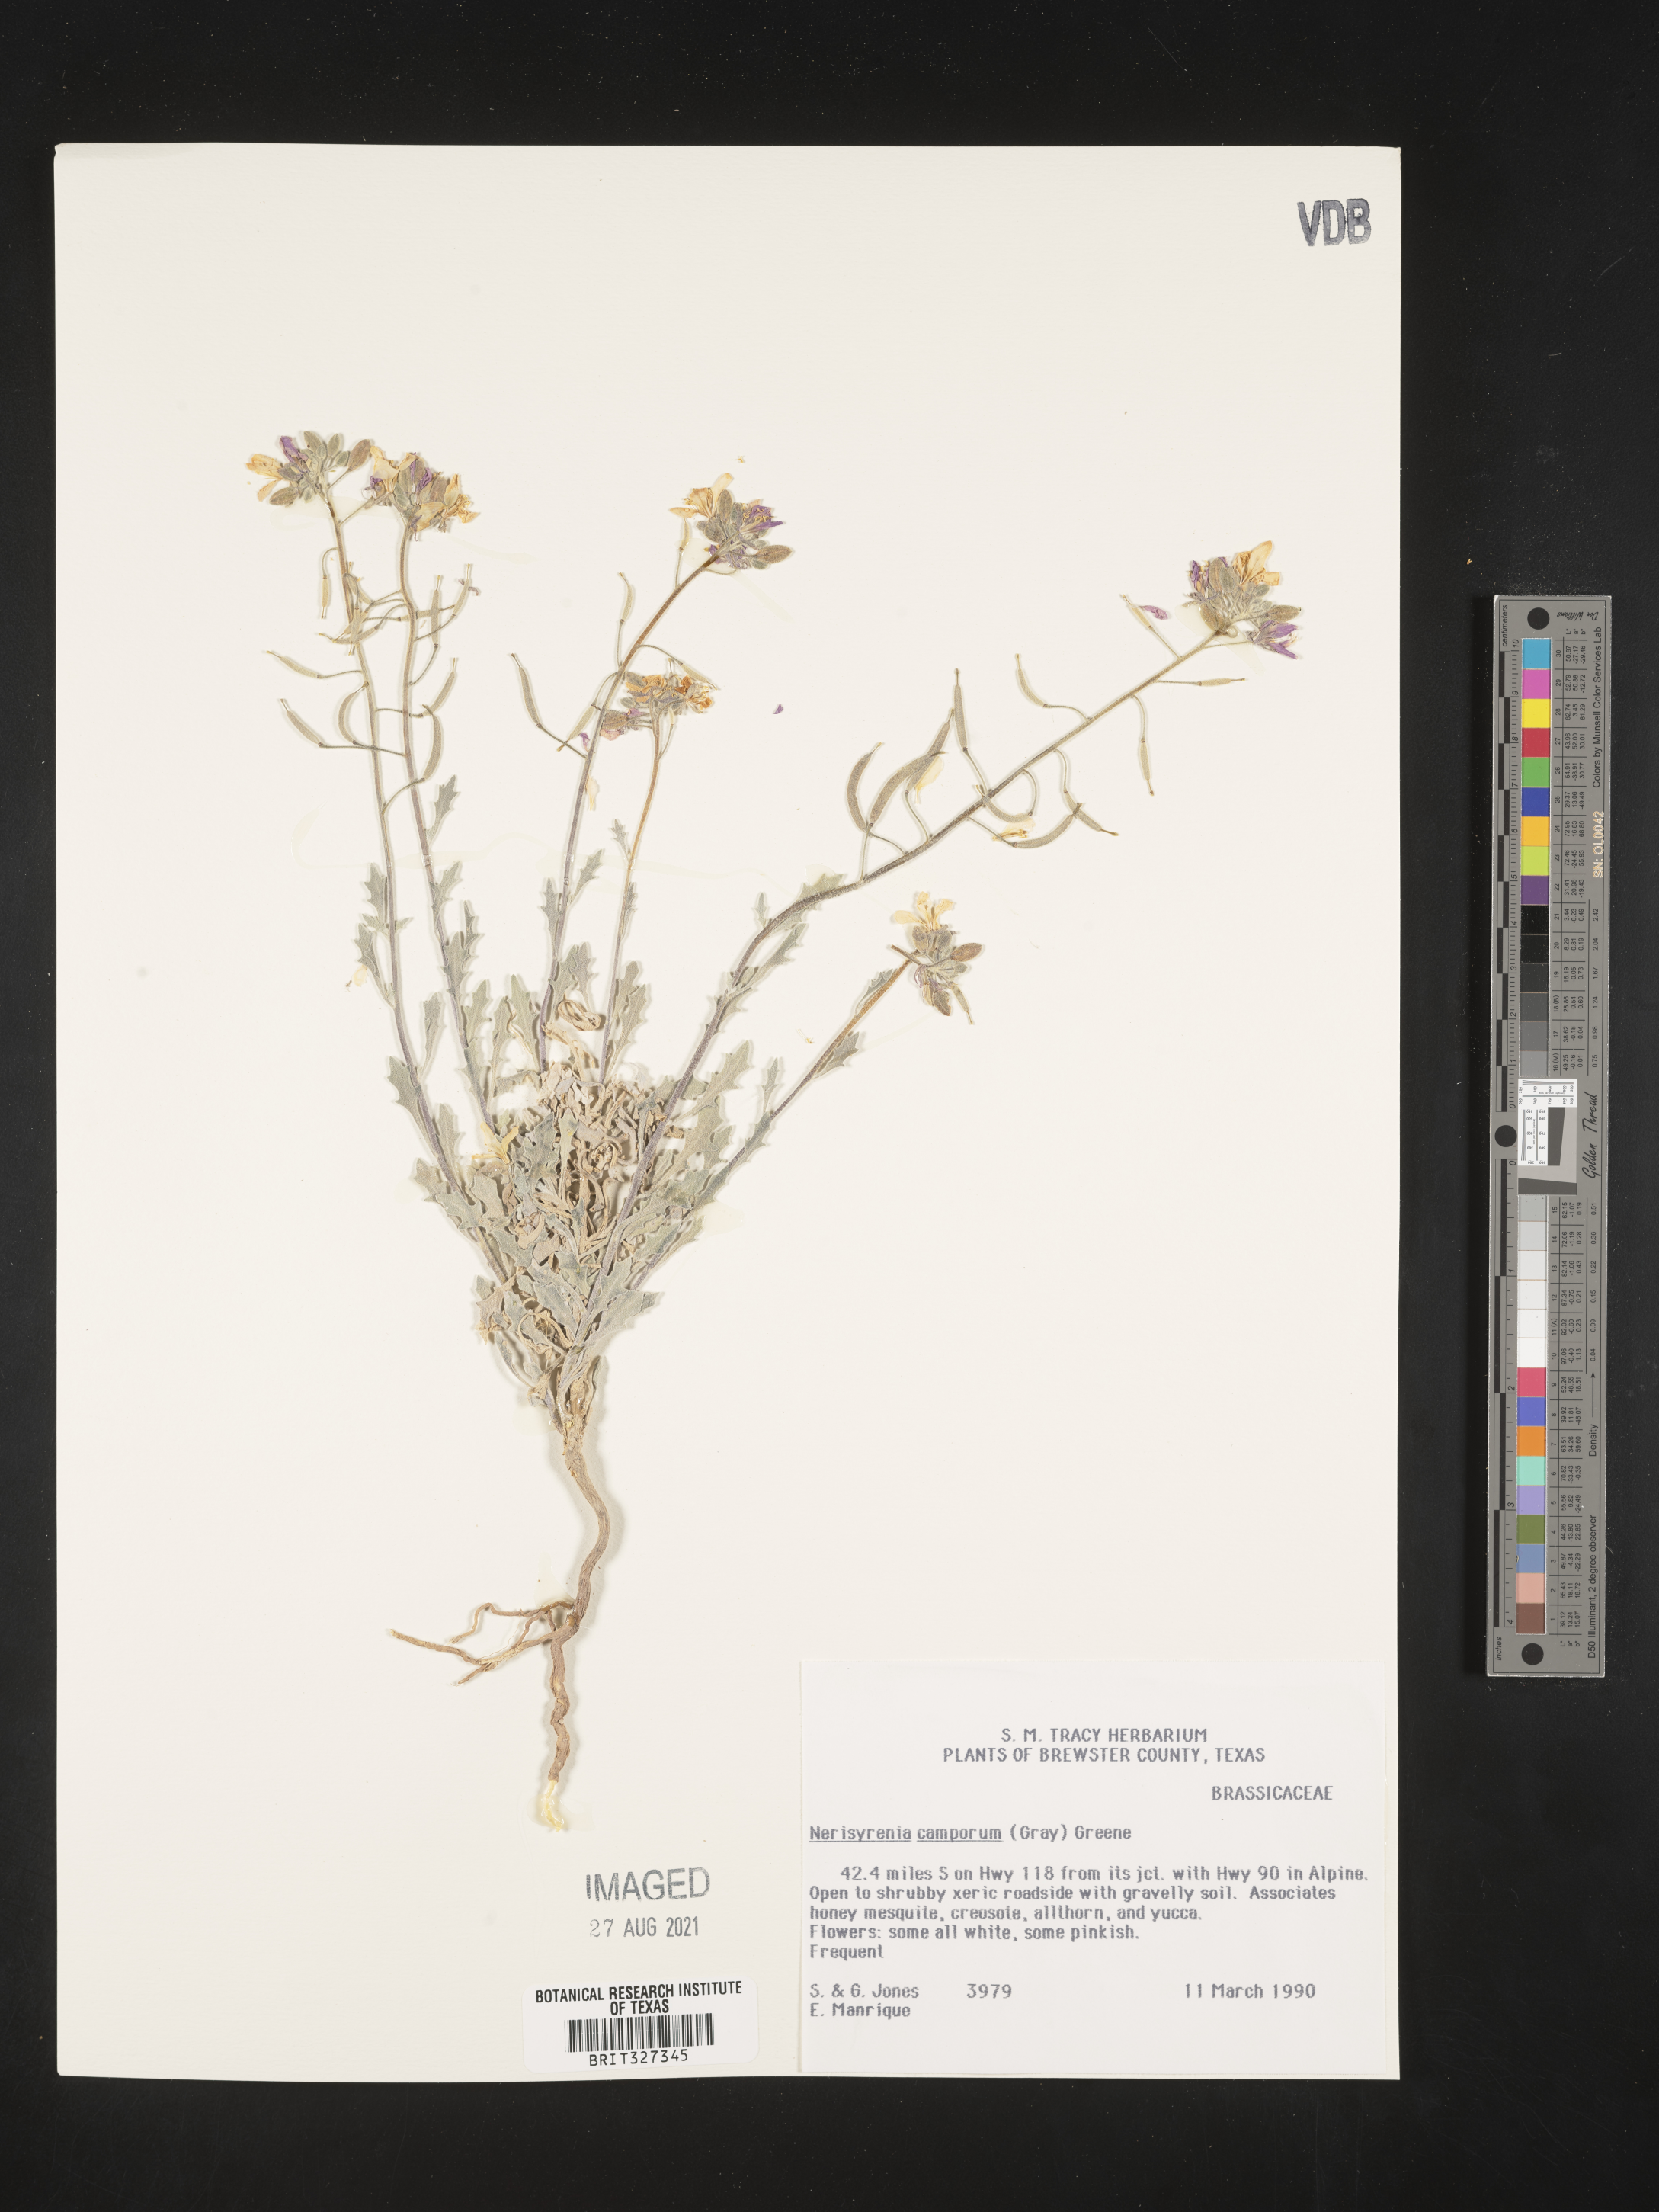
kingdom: Plantae
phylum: Tracheophyta
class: Magnoliopsida
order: Brassicales
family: Brassicaceae
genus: Nerisyrenia
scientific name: Nerisyrenia camporum
